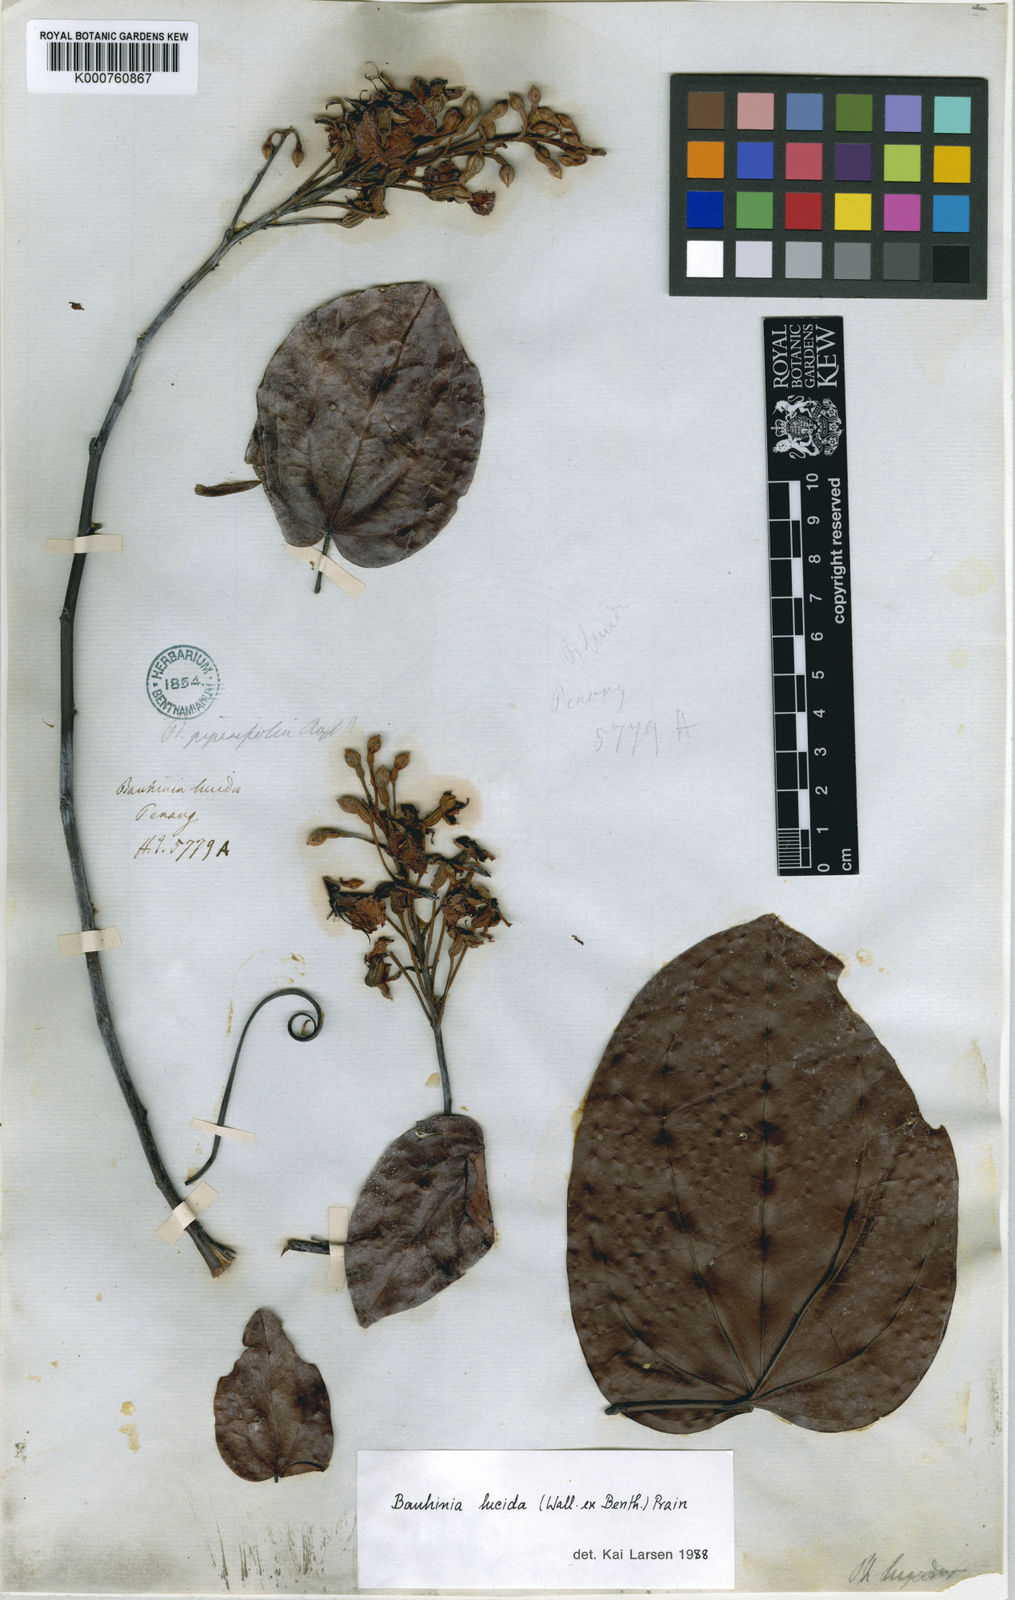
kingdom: Plantae
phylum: Tracheophyta
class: Magnoliopsida
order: Fabales
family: Fabaceae
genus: Phanera
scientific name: Phanera lucida
